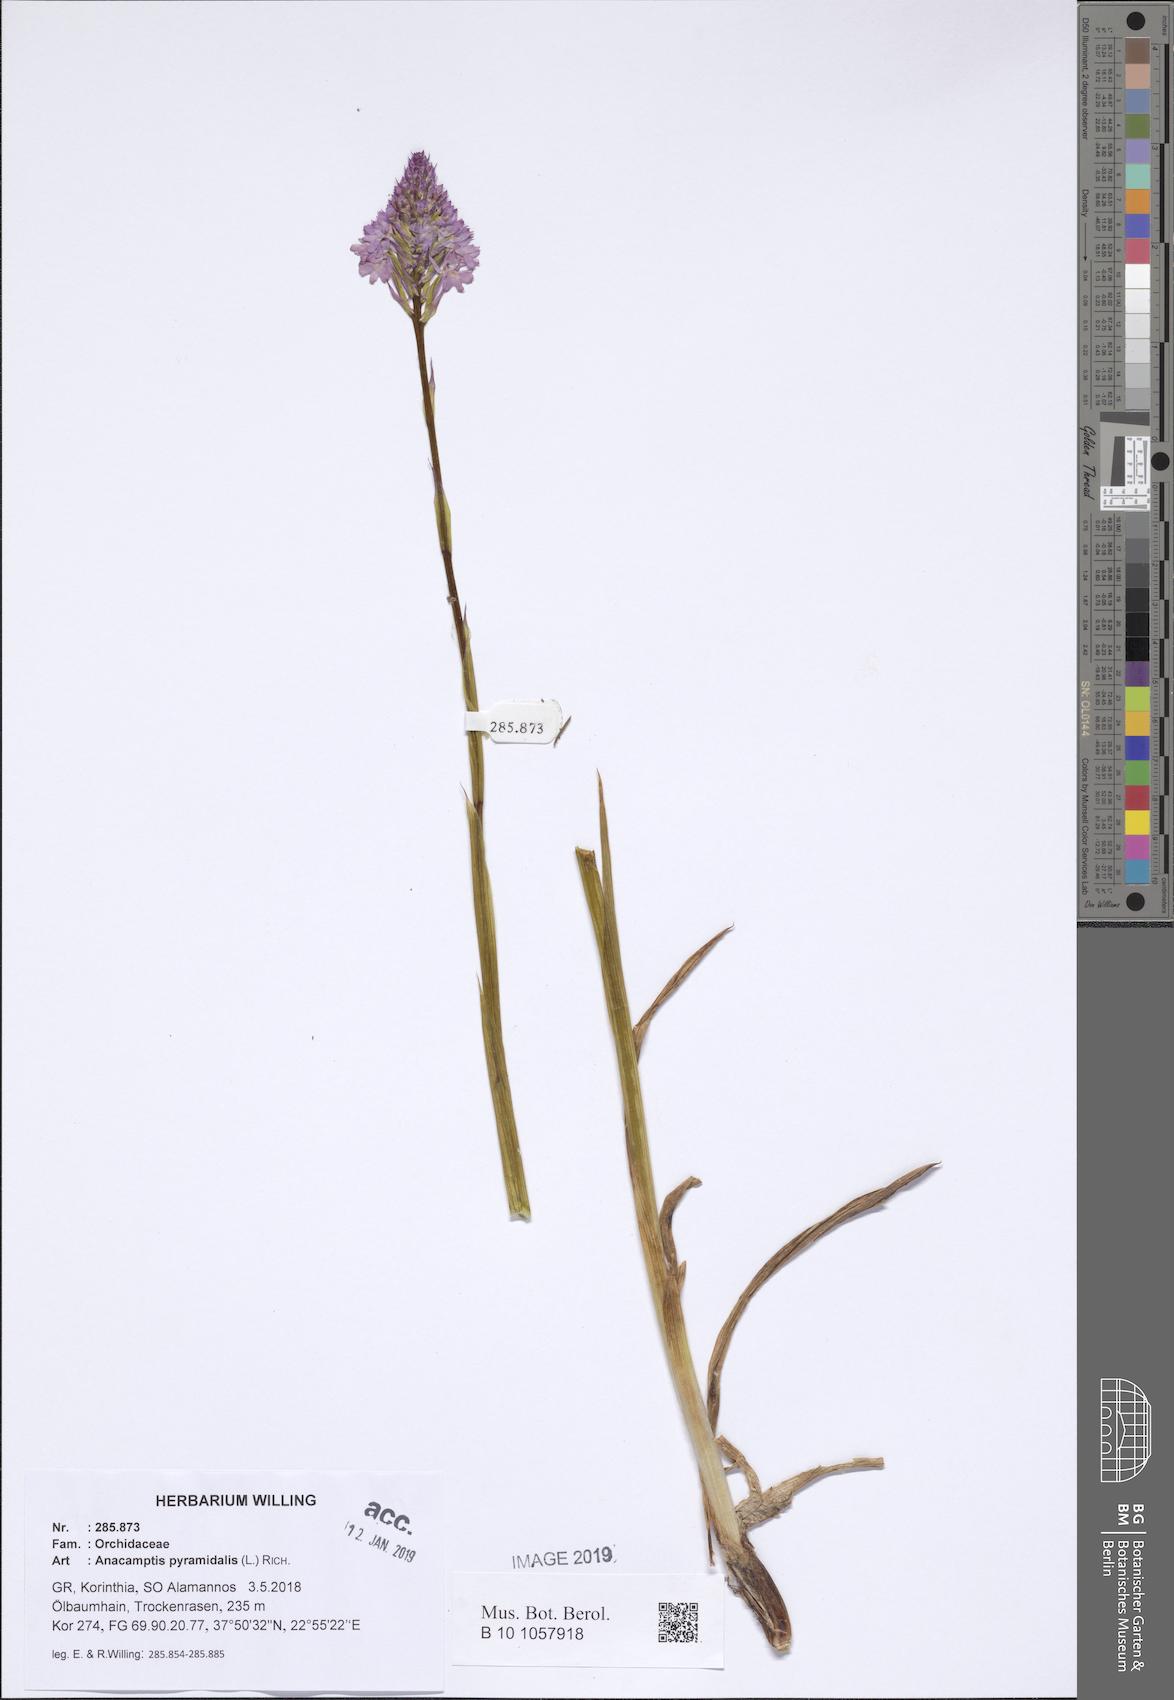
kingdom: Plantae
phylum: Tracheophyta
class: Liliopsida
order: Asparagales
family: Orchidaceae
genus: Anacamptis
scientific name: Anacamptis pyramidalis
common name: Pyramidal orchid
